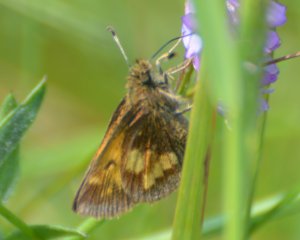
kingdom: Animalia
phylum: Arthropoda
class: Insecta
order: Lepidoptera
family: Hesperiidae
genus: Lon
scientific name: Lon hobomok
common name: Hobomok Skipper
